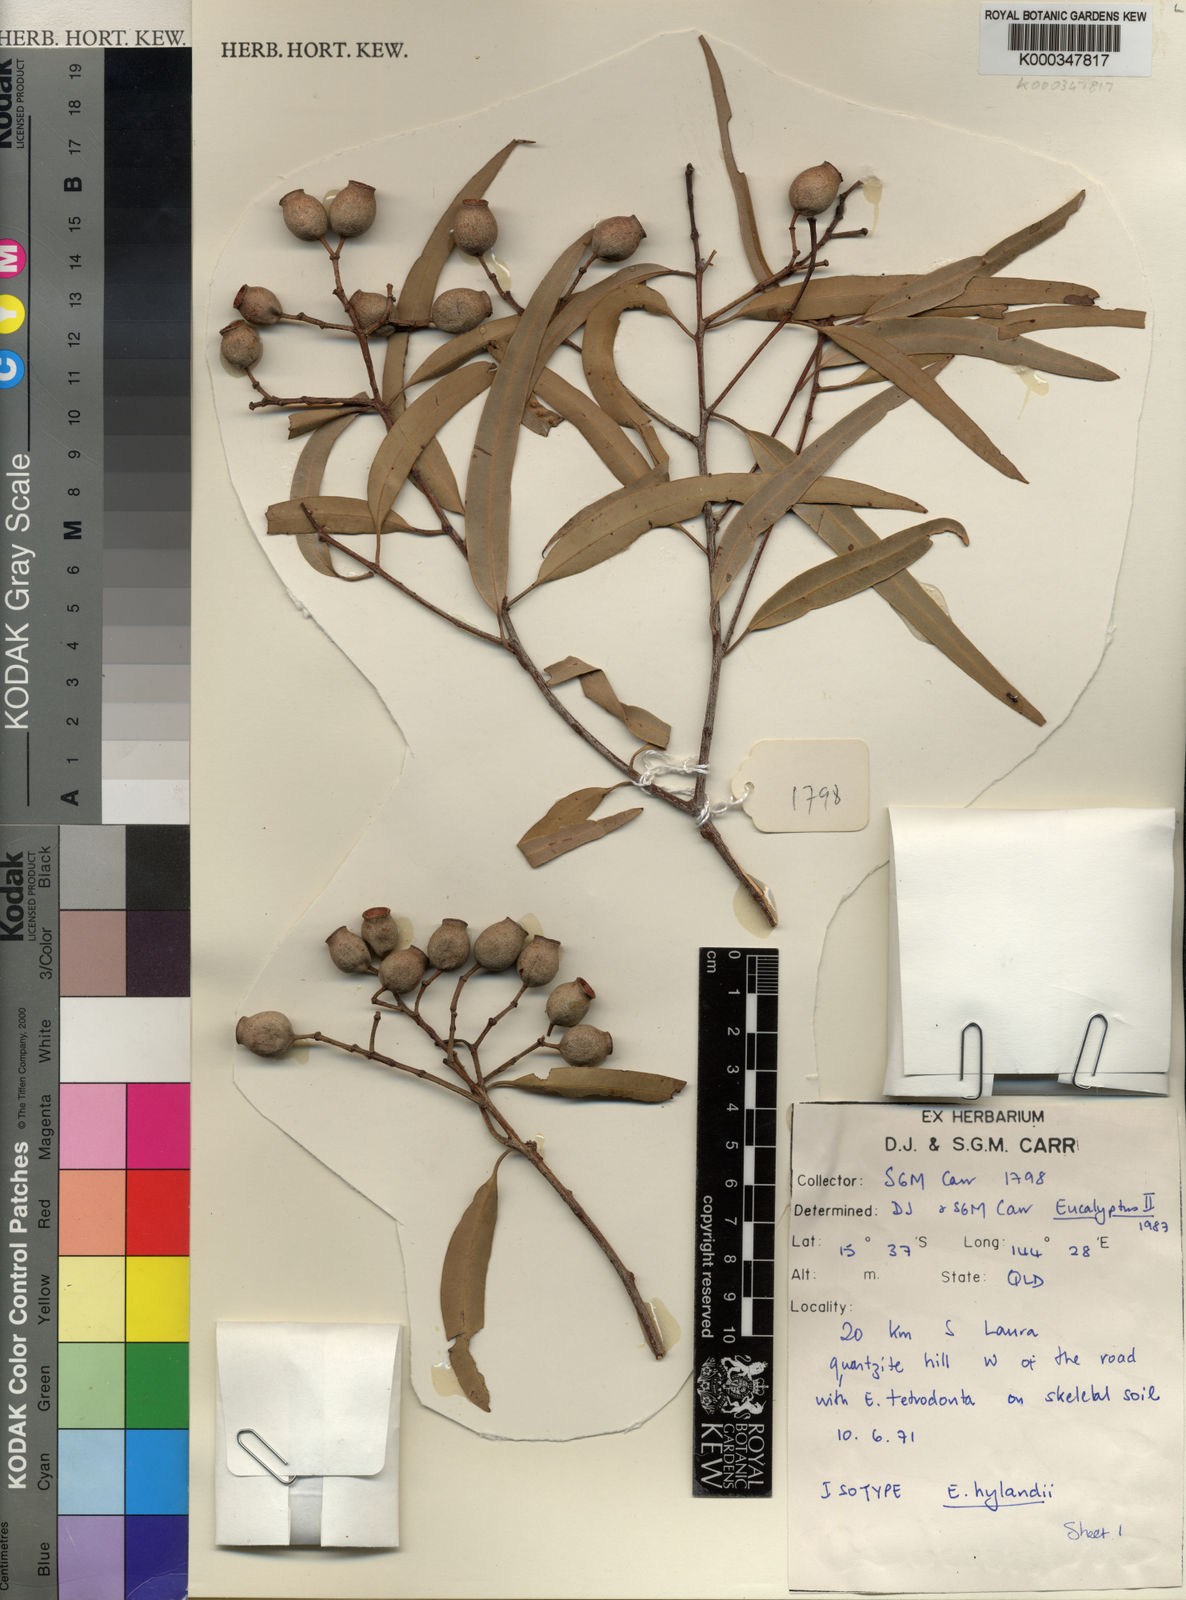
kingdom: Plantae
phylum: Tracheophyta
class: Magnoliopsida
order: Myrtales
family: Myrtaceae
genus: Corymbia
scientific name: Corymbia hylandii
